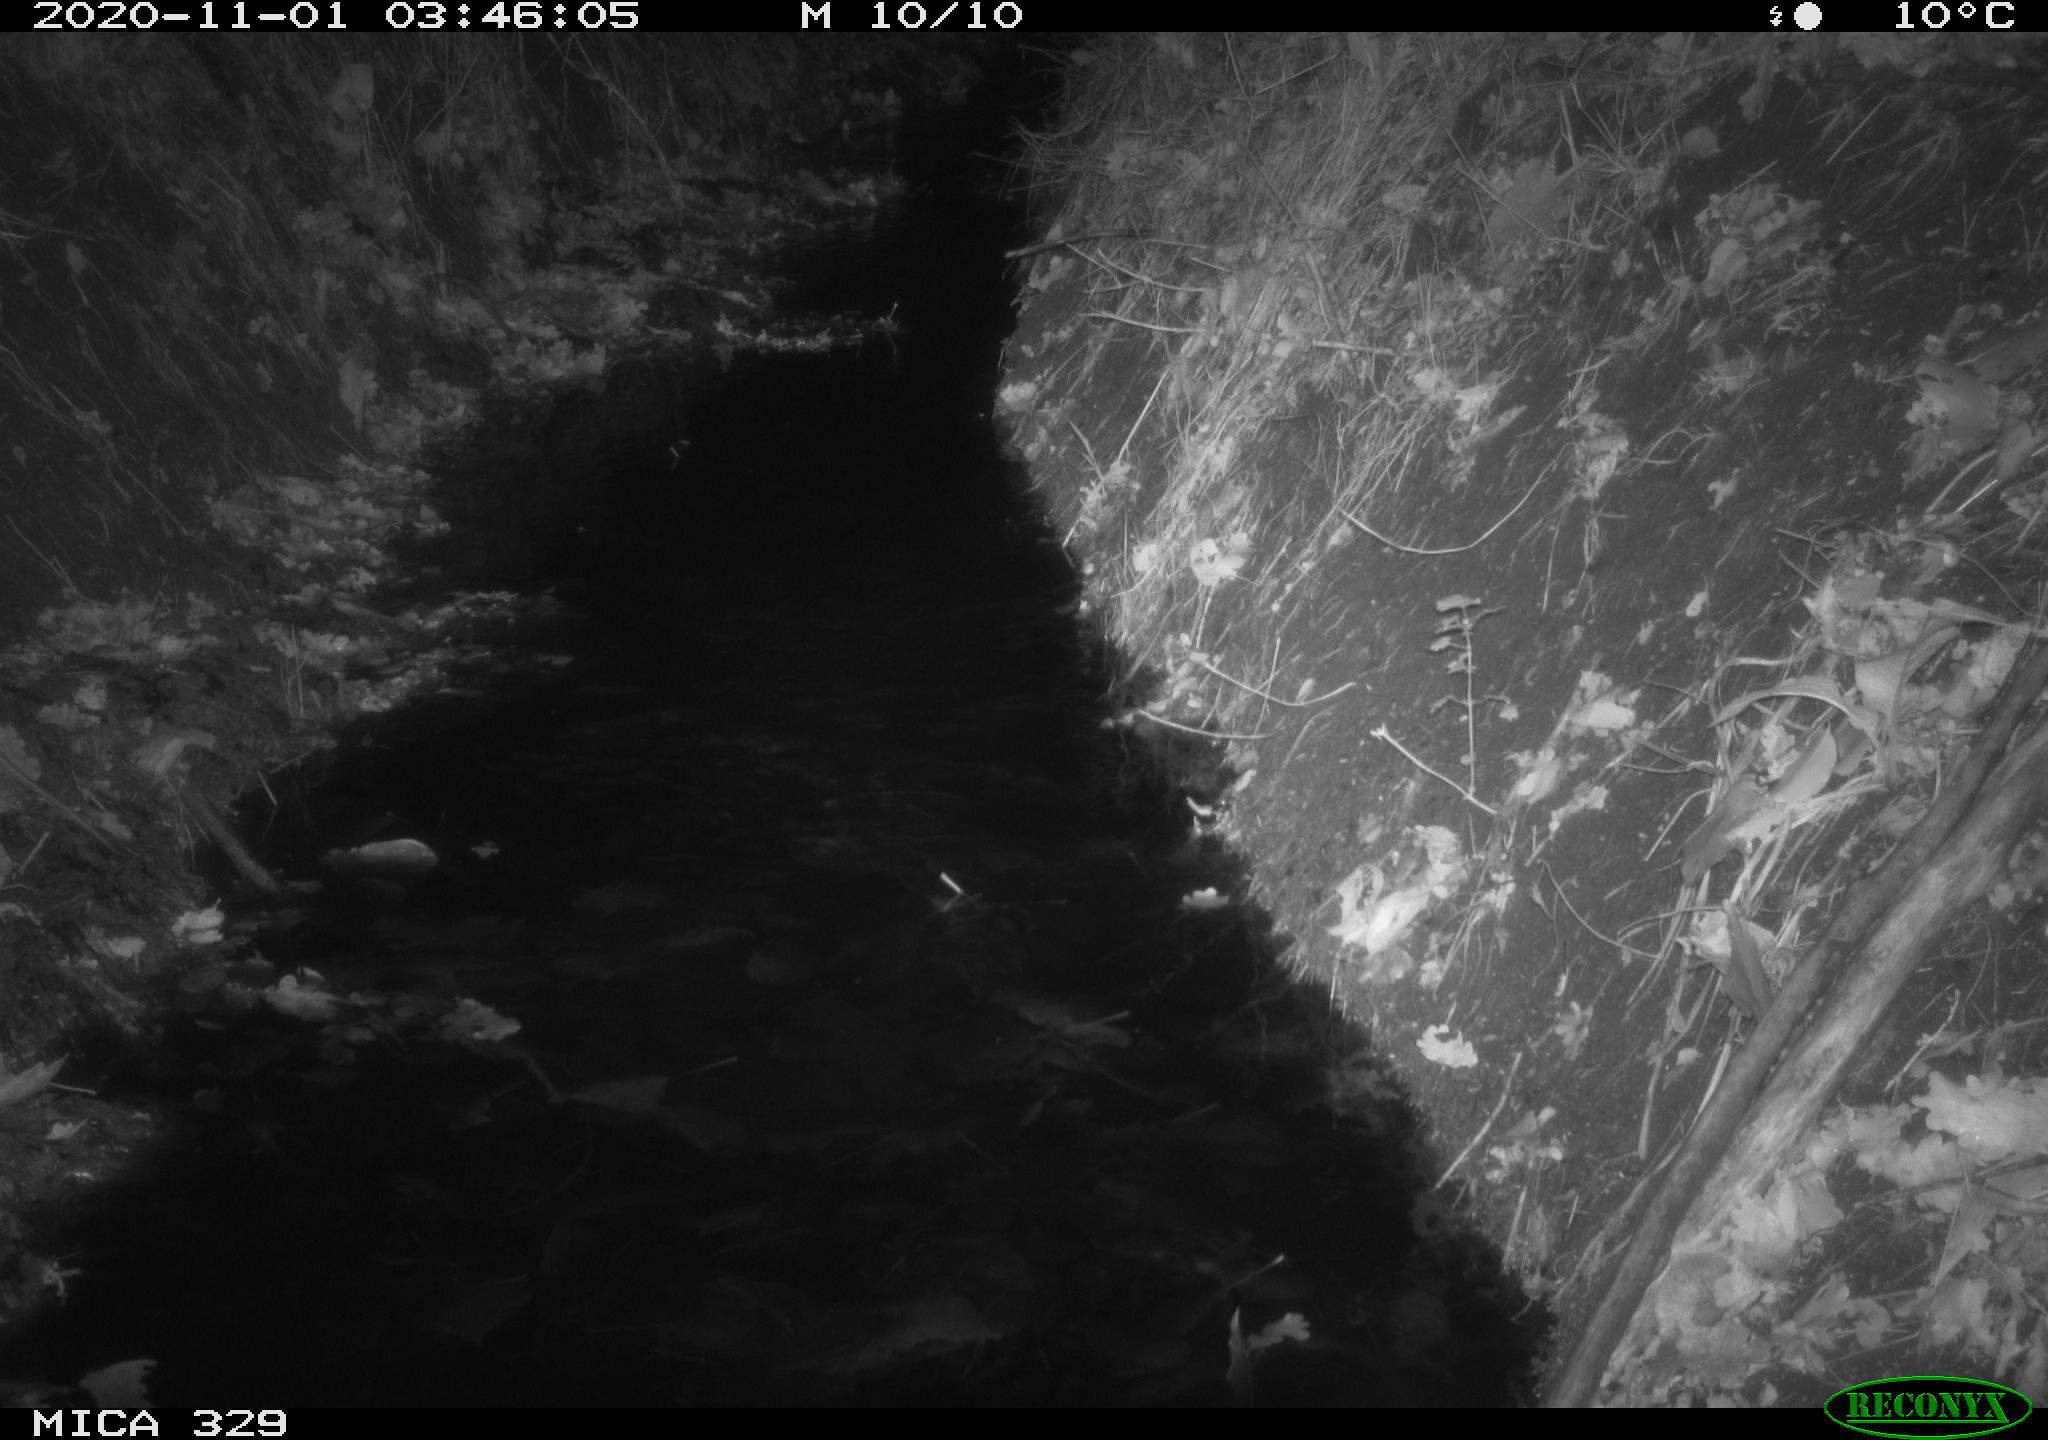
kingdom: Animalia
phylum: Chordata
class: Mammalia
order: Rodentia
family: Muridae
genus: Rattus
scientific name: Rattus norvegicus
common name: Brown rat
